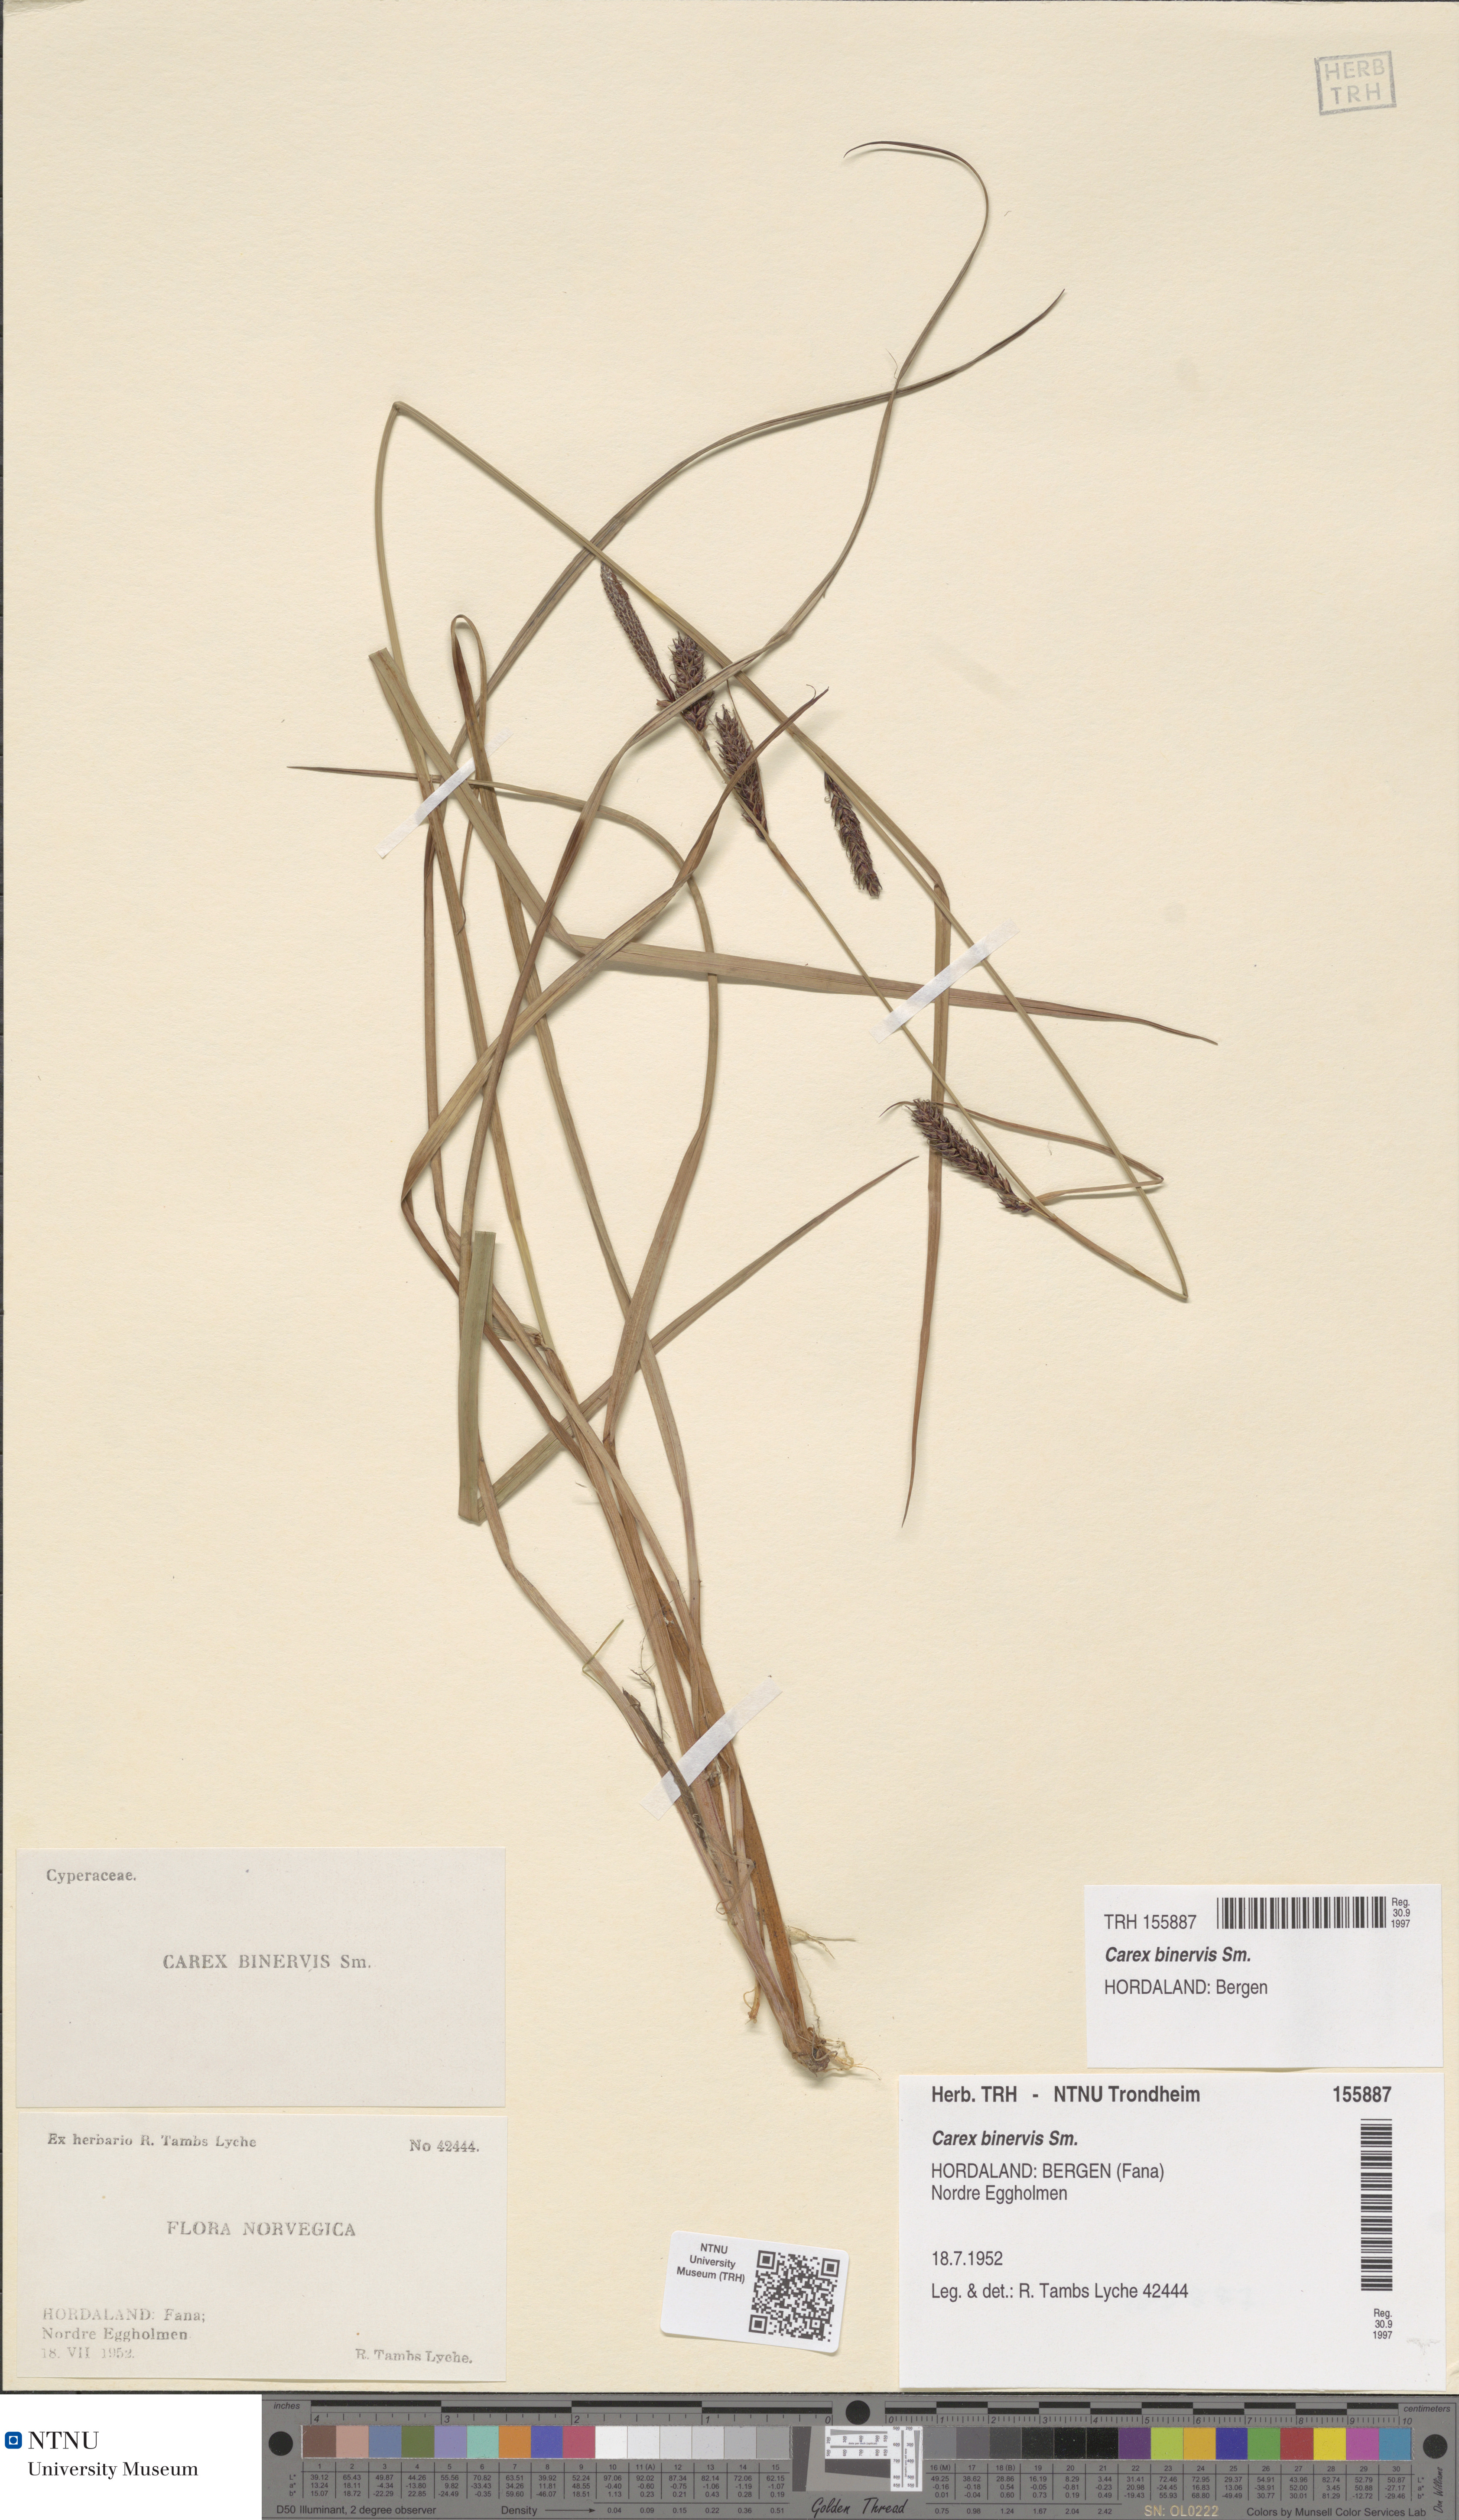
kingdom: Plantae
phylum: Tracheophyta
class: Liliopsida
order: Poales
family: Cyperaceae
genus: Carex
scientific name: Carex binervis
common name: Green-ribbed sedge
